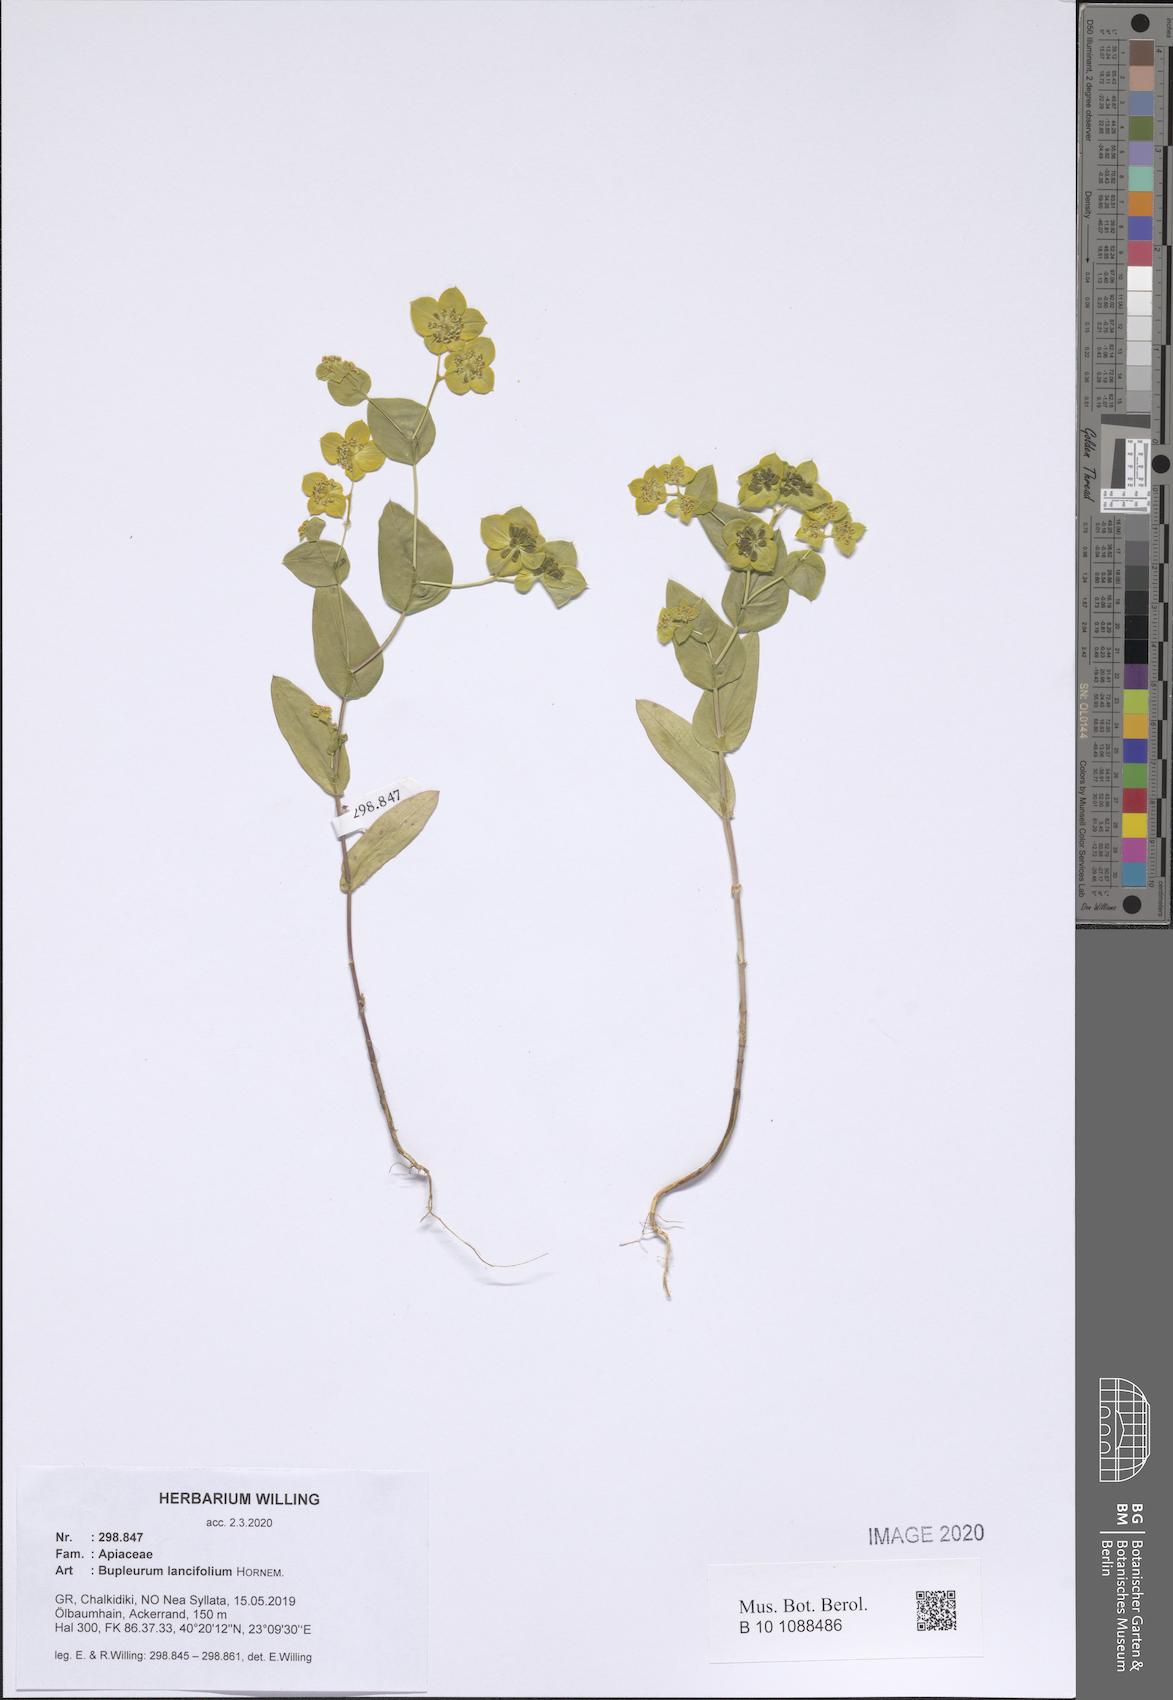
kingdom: Plantae
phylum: Tracheophyta
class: Magnoliopsida
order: Apiales
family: Apiaceae
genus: Bupleurum
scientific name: Bupleurum lancifolium
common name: False thorow-wax
